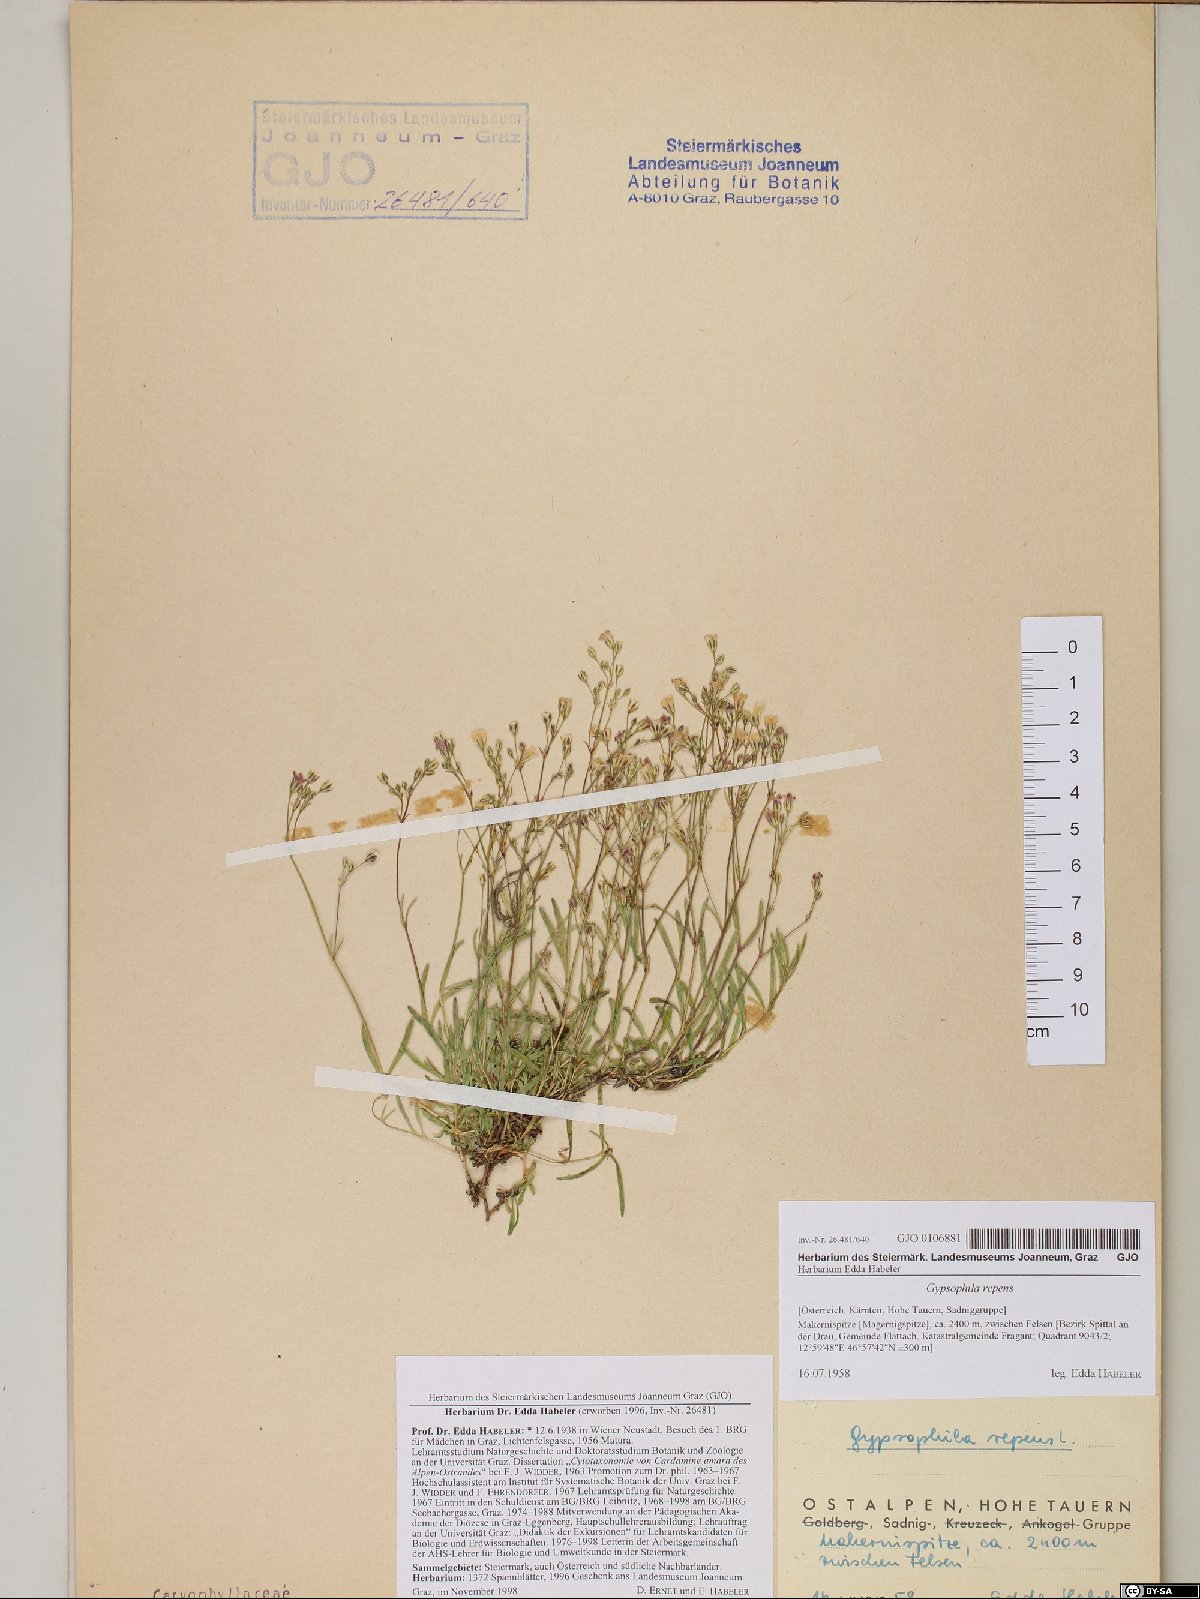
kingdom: Plantae
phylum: Tracheophyta
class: Magnoliopsida
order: Caryophyllales
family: Caryophyllaceae
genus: Gypsophila
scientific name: Gypsophila repens
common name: Creeping baby's-breath
